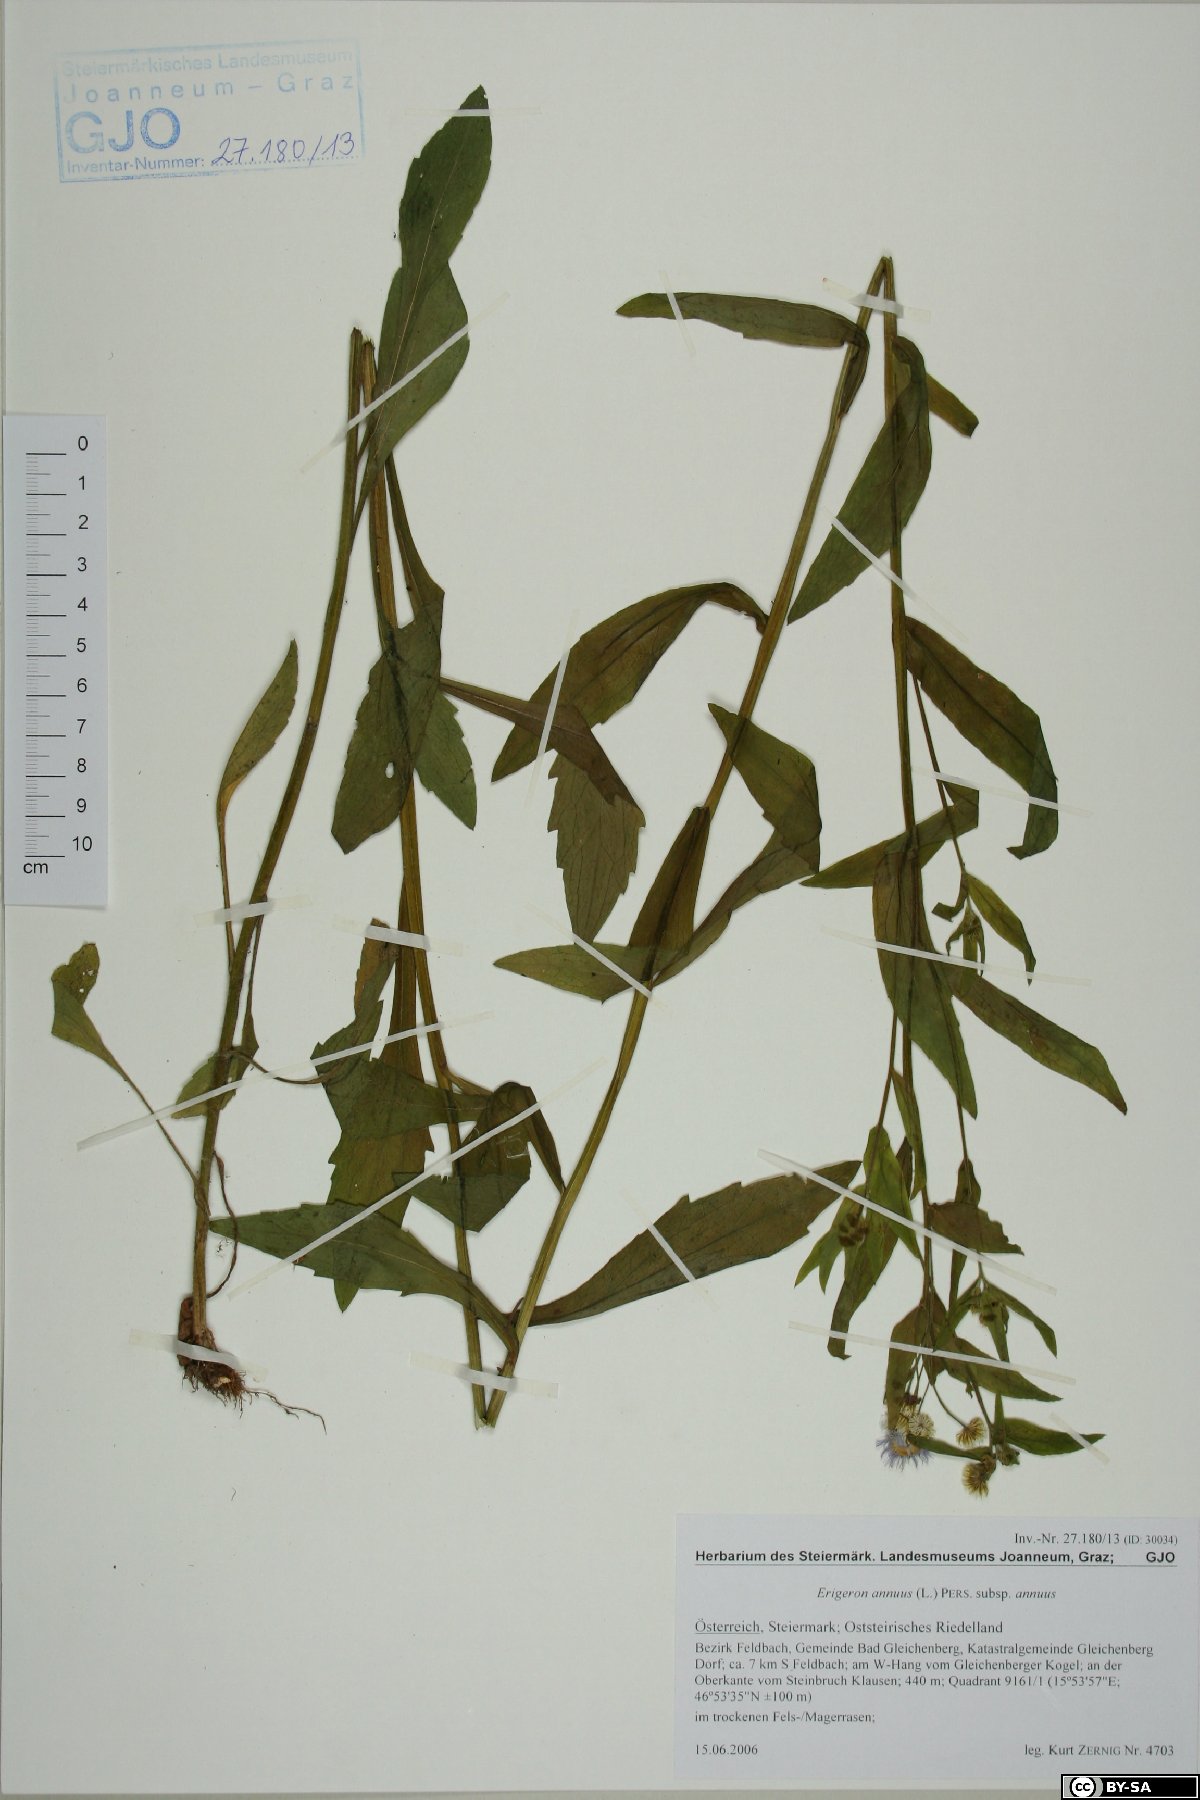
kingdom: Plantae
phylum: Tracheophyta
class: Magnoliopsida
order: Asterales
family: Asteraceae
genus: Erigeron
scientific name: Erigeron annuus
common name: Tall fleabane
